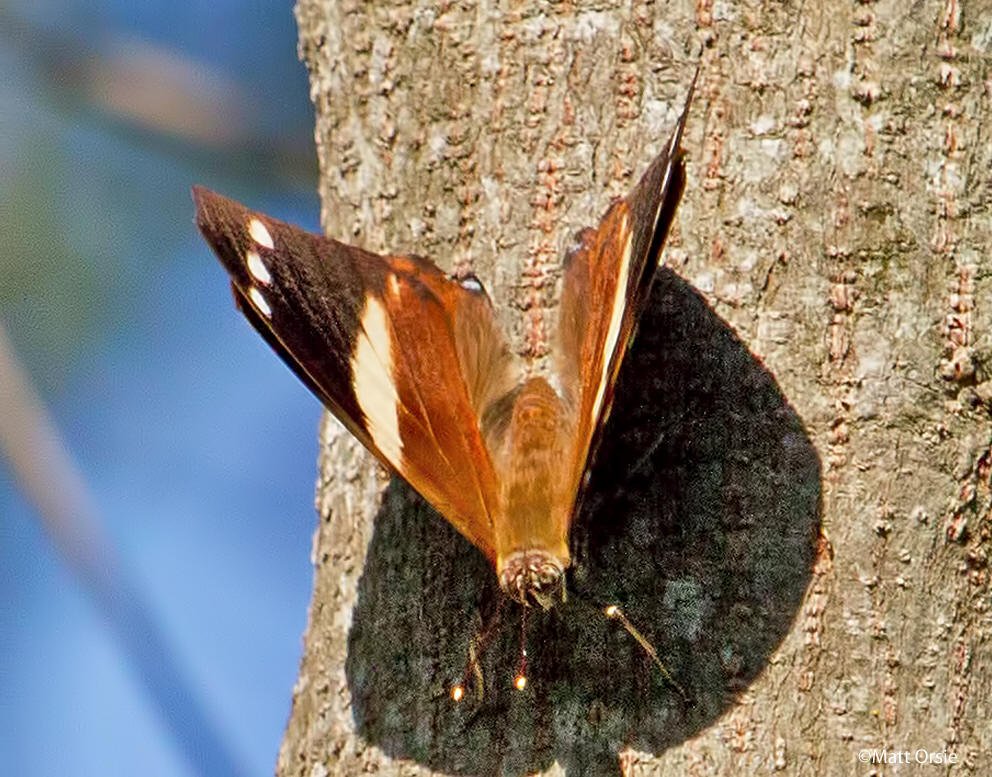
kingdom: Animalia
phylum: Arthropoda
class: Insecta
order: Lepidoptera
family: Nymphalidae
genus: Smyrna
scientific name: Smyrna blomfildia
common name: Blomfild's Beauty
